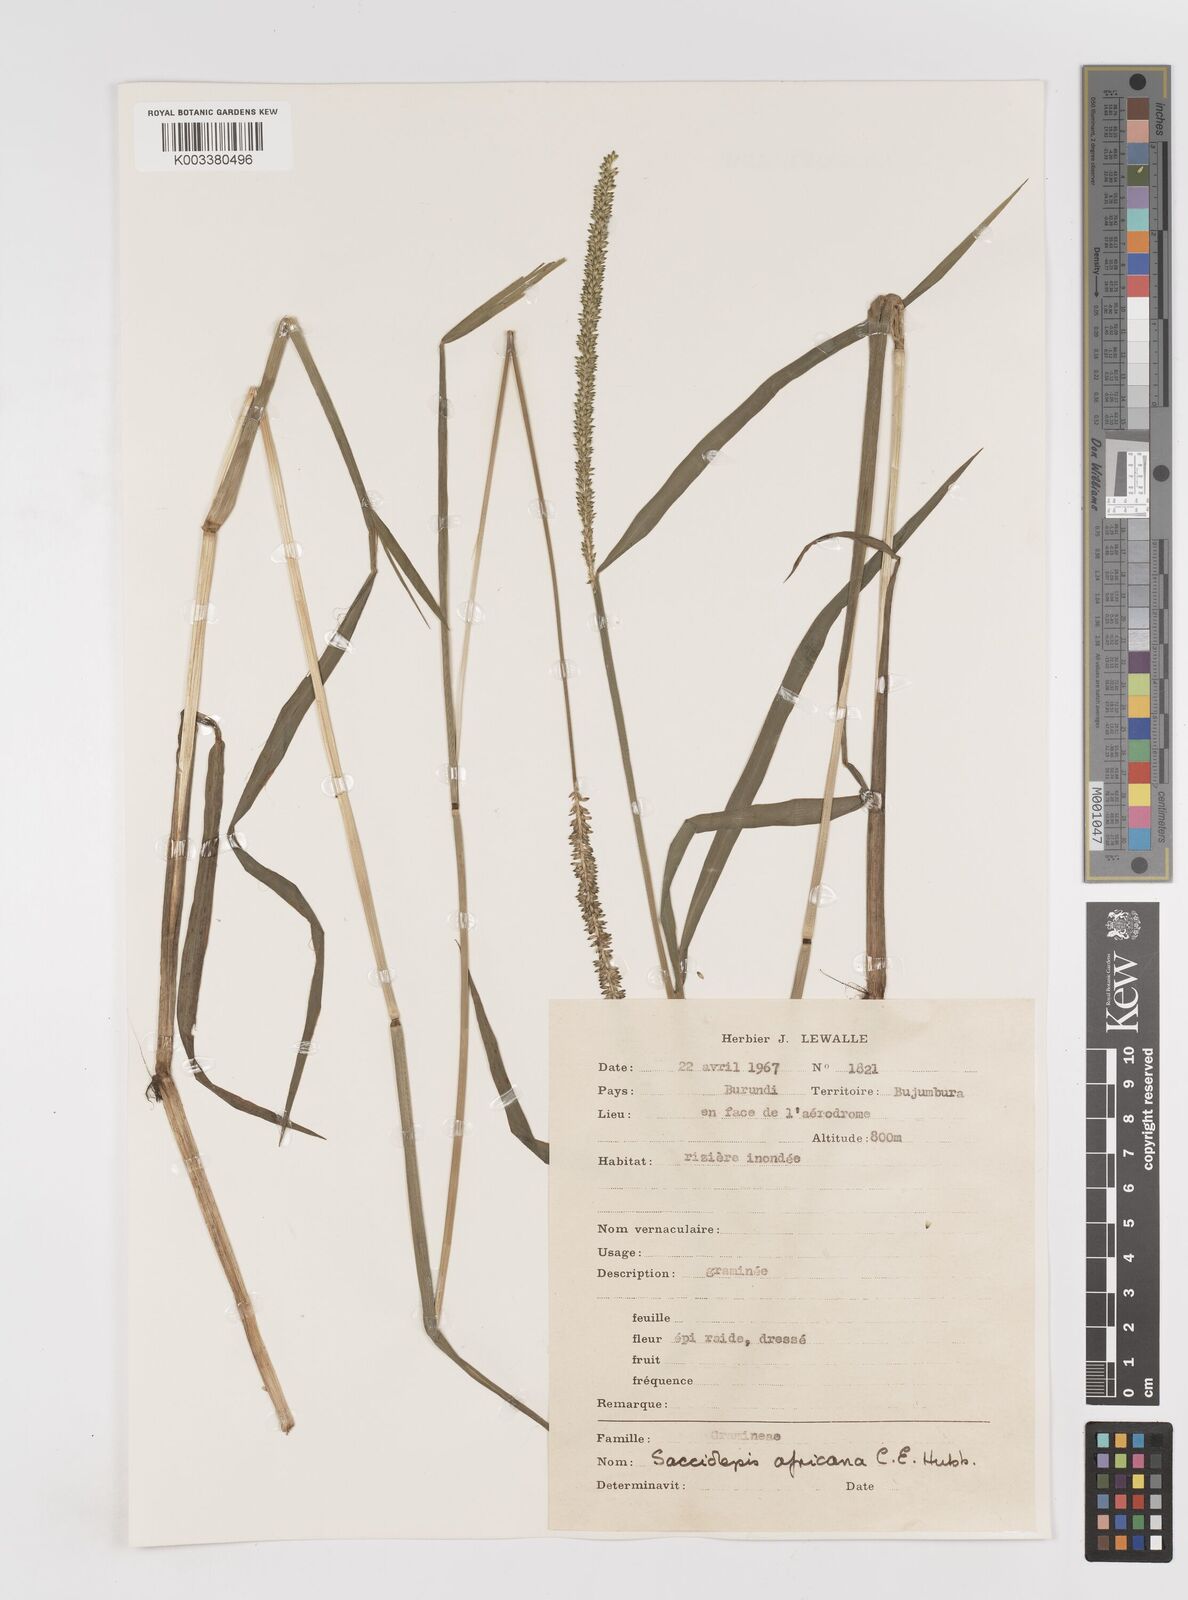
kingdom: Plantae
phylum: Tracheophyta
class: Liliopsida
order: Poales
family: Poaceae
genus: Sacciolepis
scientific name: Sacciolepis africana
